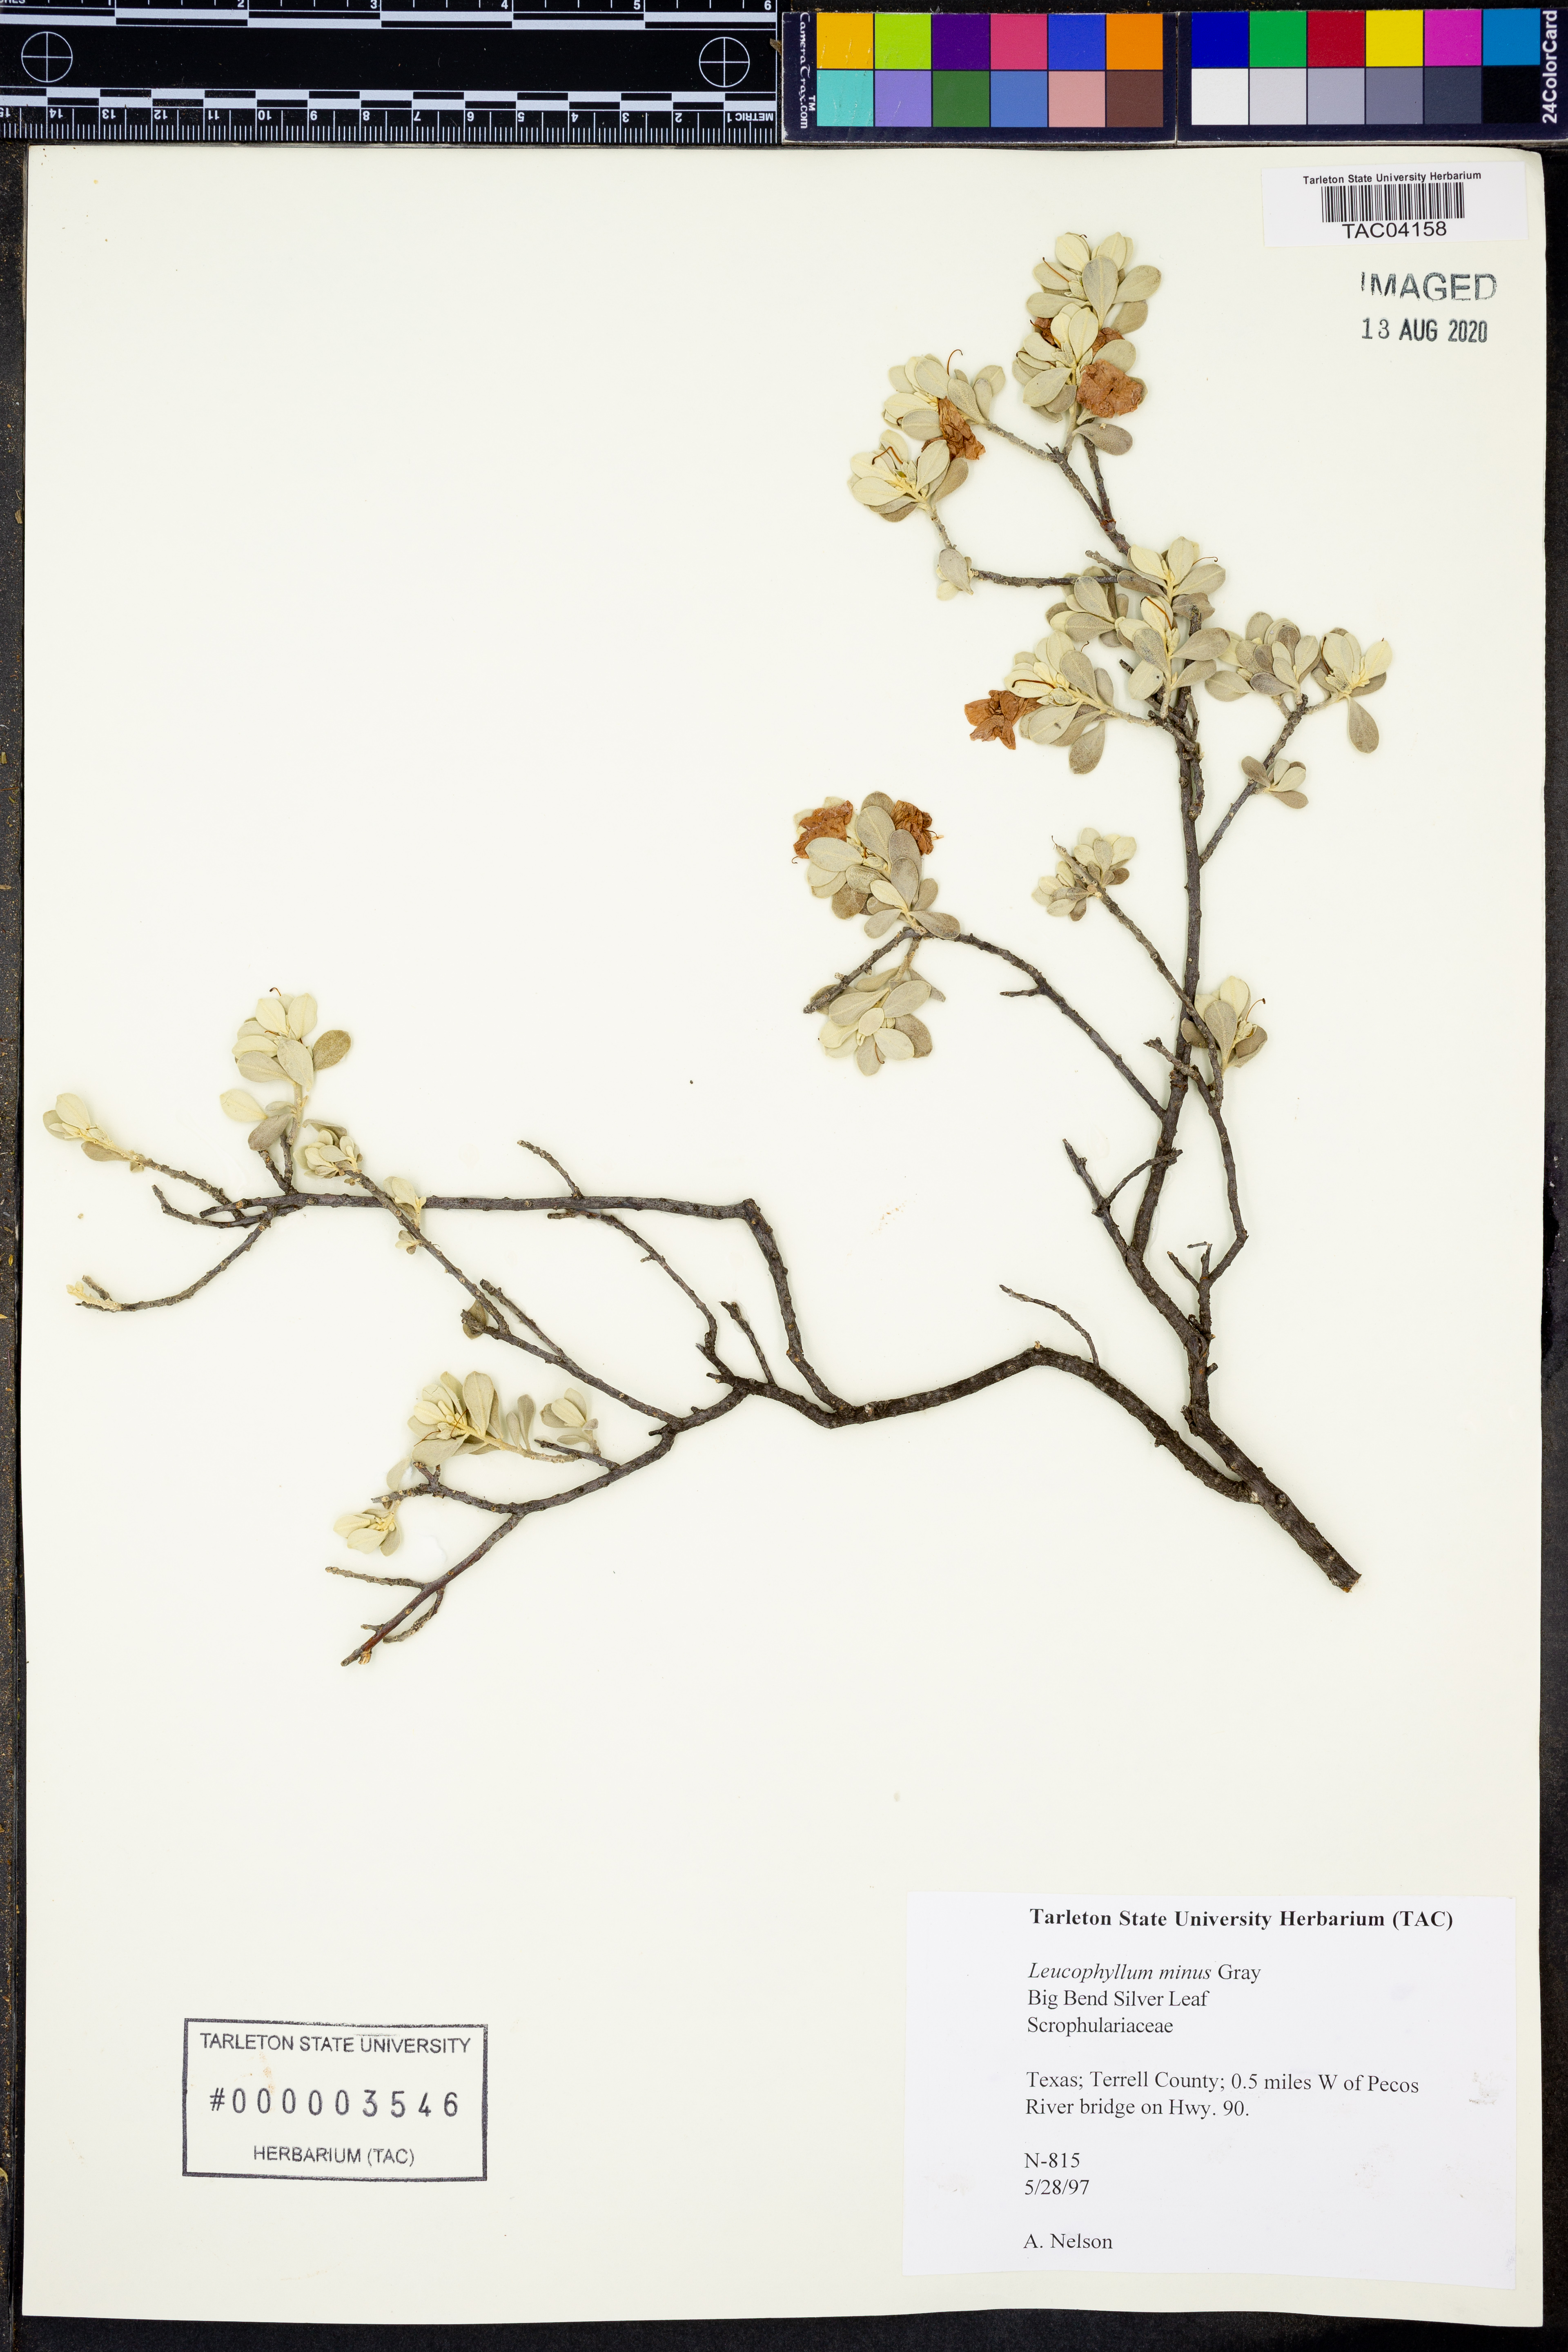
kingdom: Plantae
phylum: Tracheophyta
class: Magnoliopsida
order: Lamiales
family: Scrophulariaceae
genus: Leucophyllum
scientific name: Leucophyllum minus
